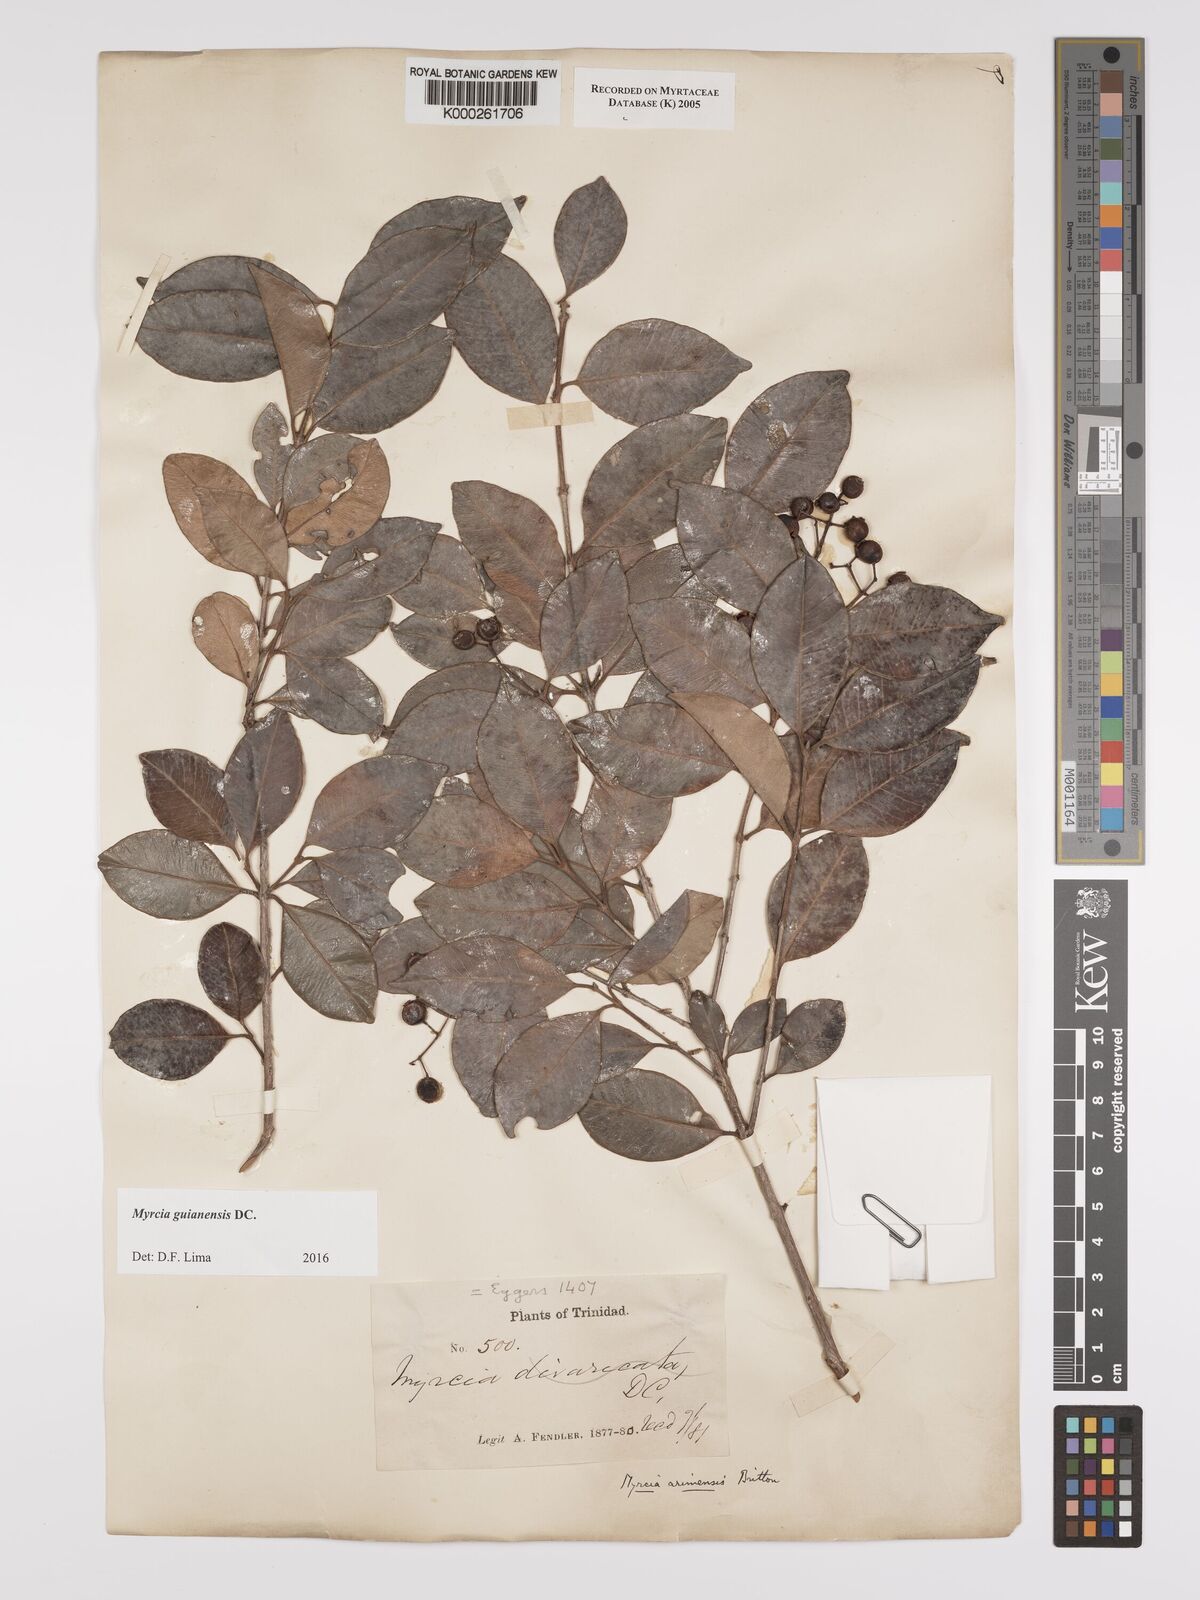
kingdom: Plantae
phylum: Tracheophyta
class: Magnoliopsida
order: Myrtales
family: Myrtaceae
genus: Myrcia
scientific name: Myrcia guianensis
